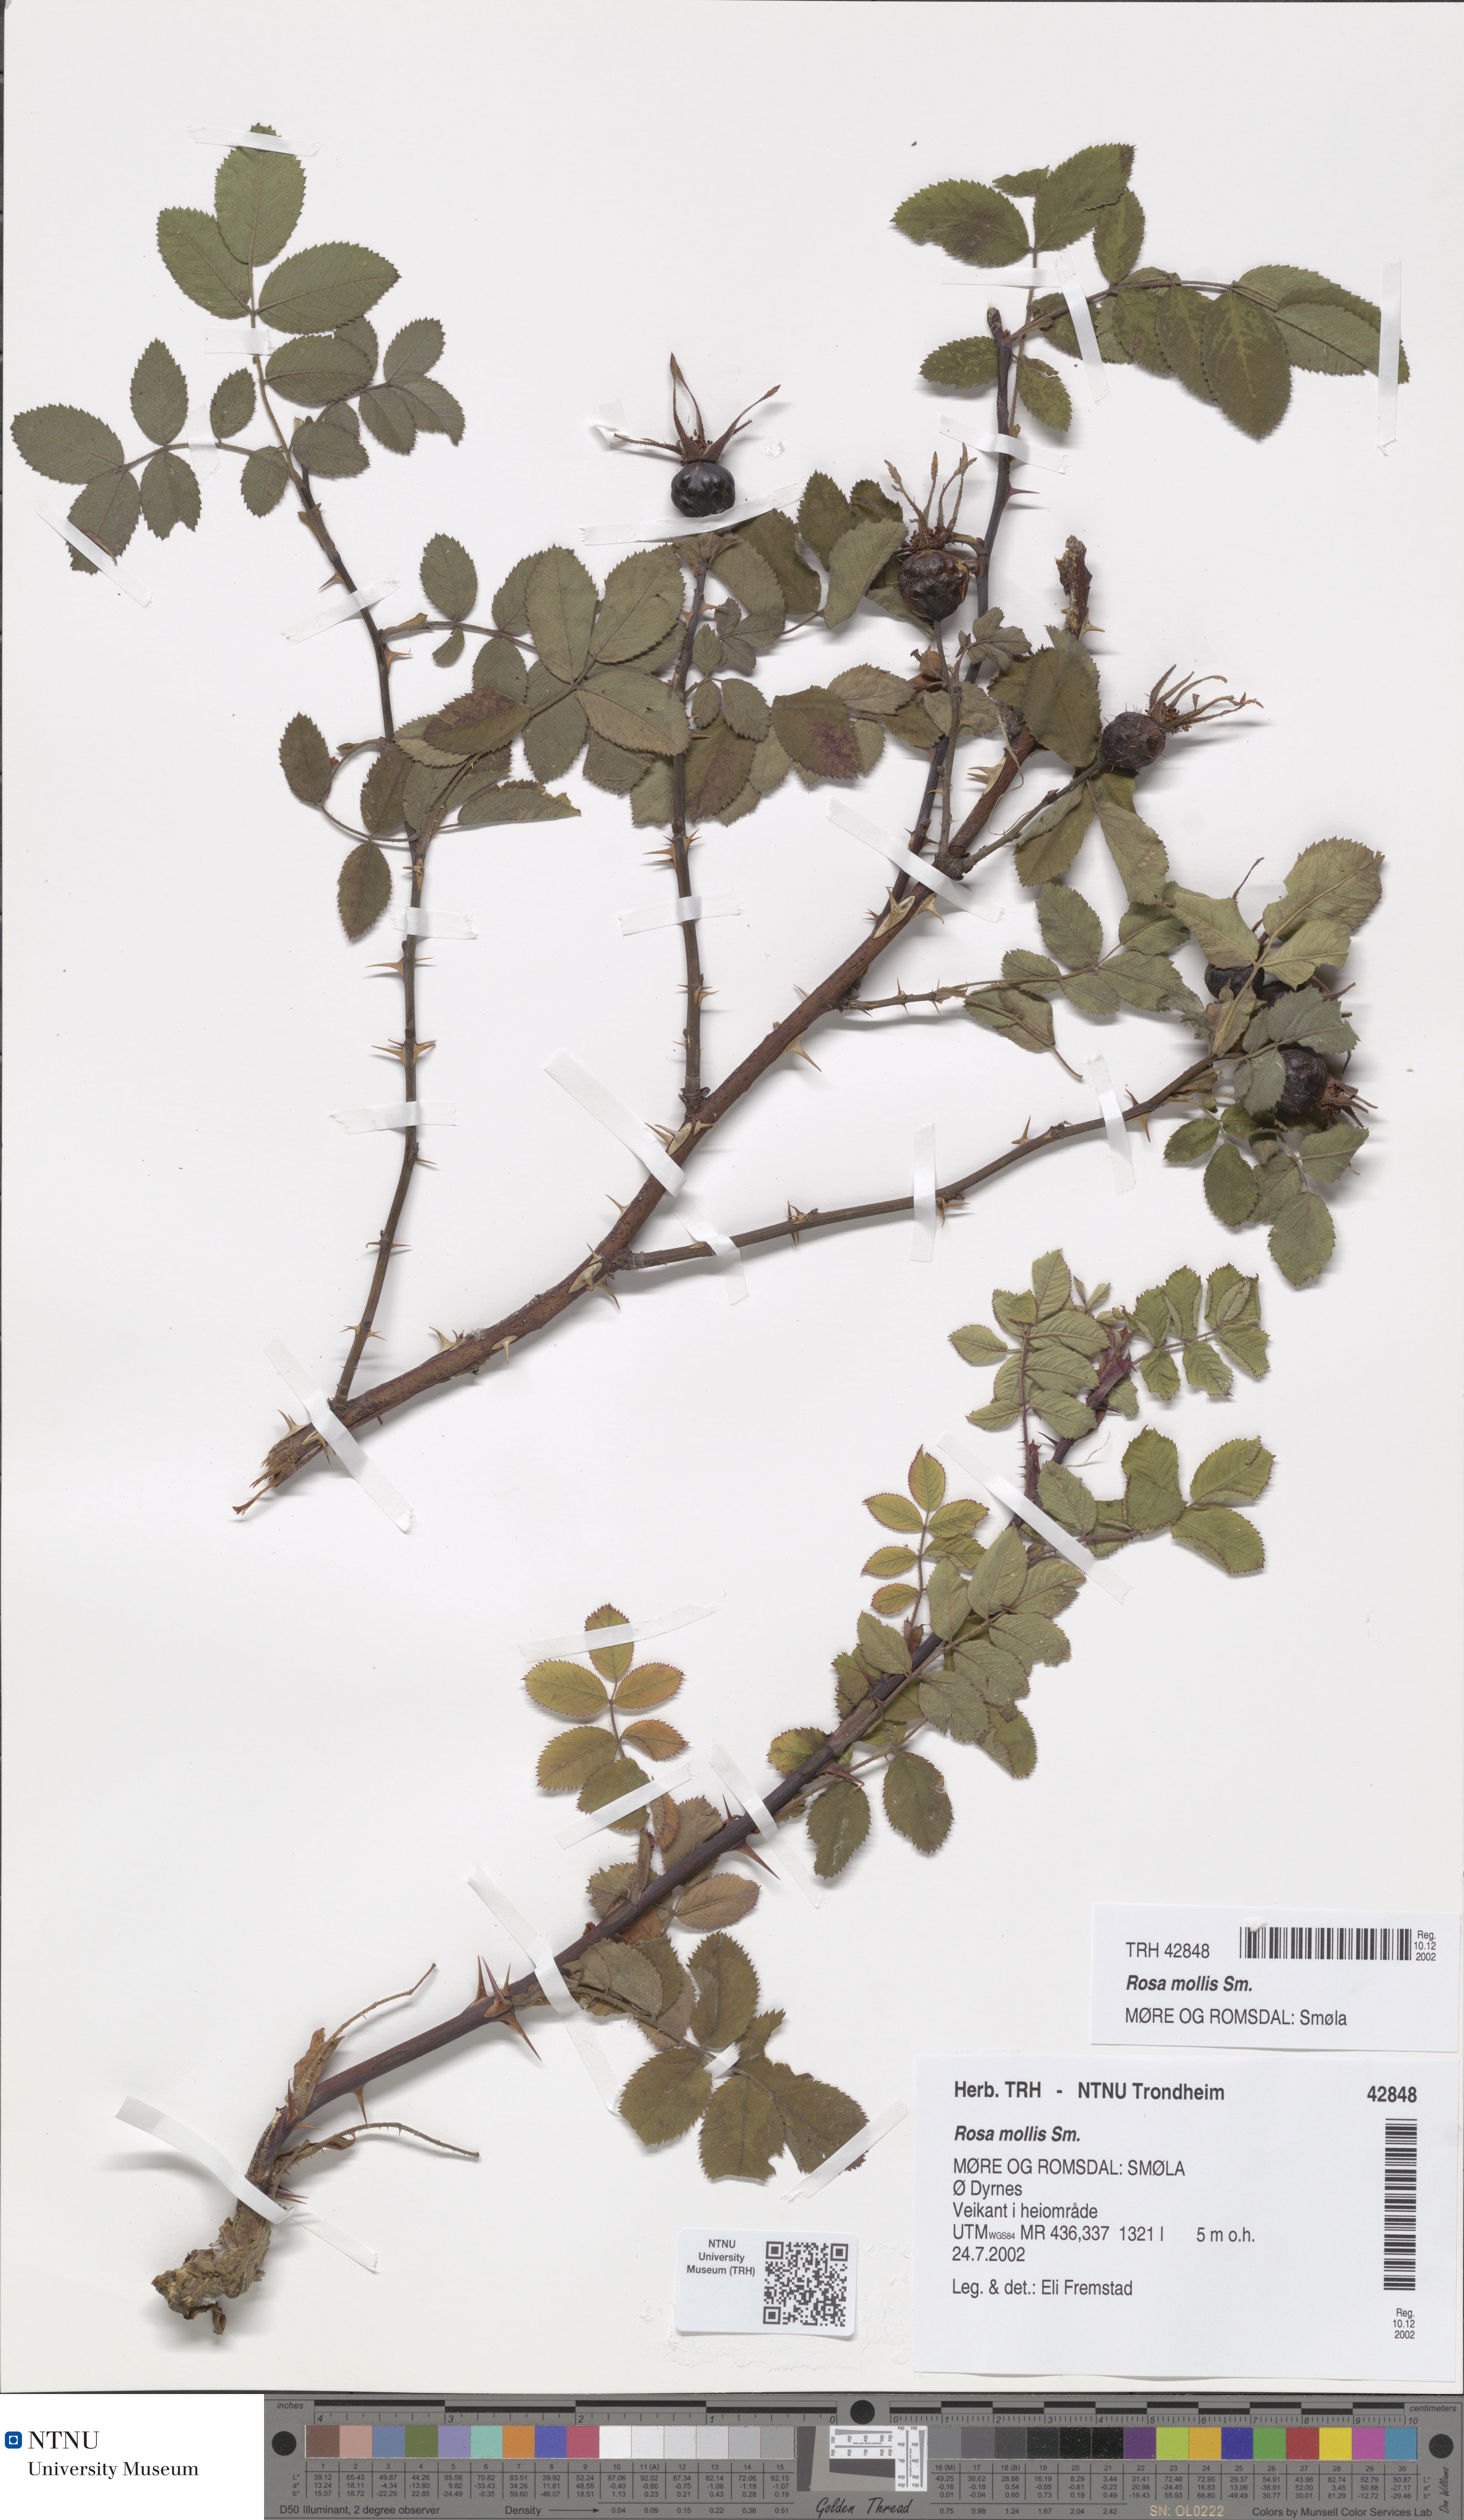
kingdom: Plantae
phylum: Tracheophyta
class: Magnoliopsida
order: Rosales
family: Rosaceae
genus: Rosa
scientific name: Rosa mollis
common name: Rose
